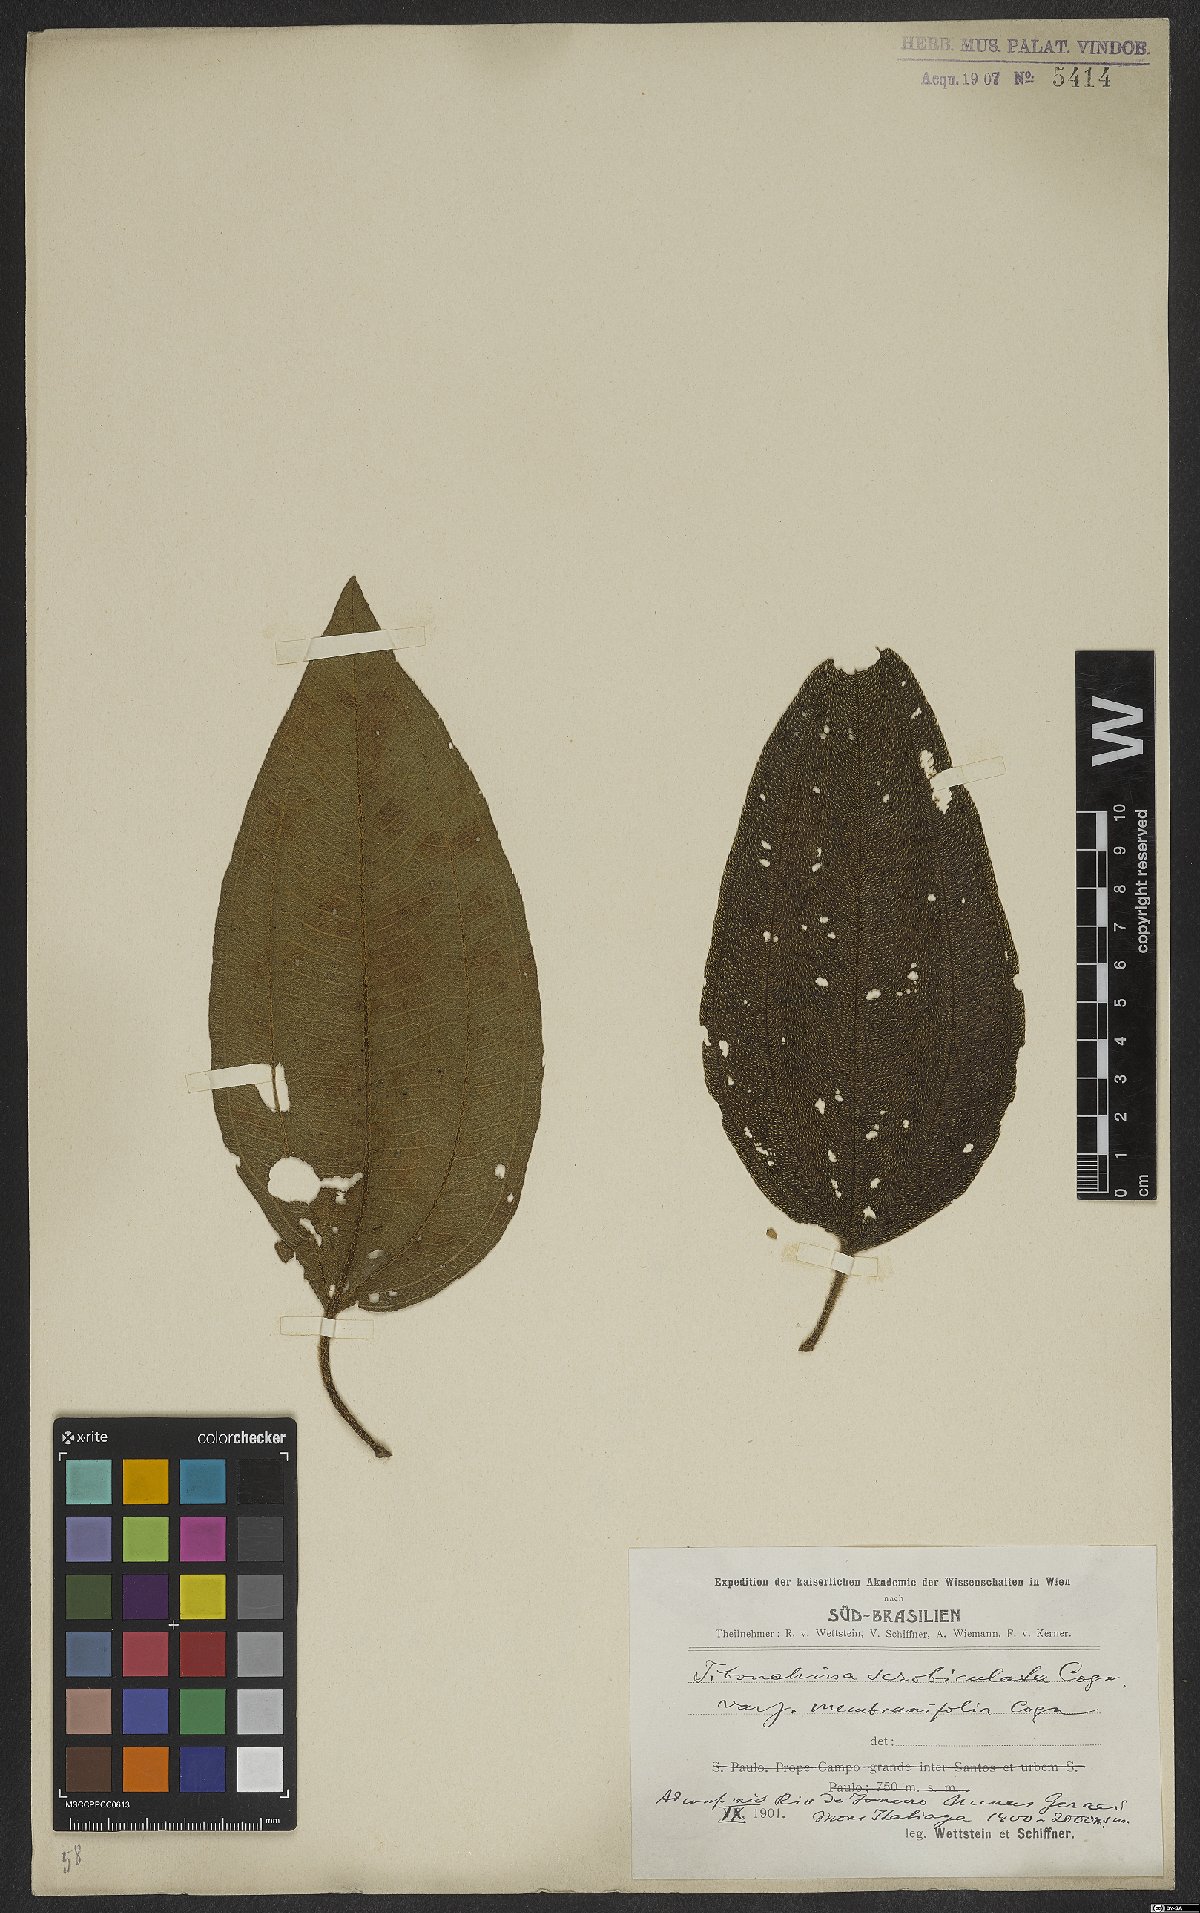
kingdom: Plantae
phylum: Tracheophyta
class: Magnoliopsida
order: Myrtales
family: Melastomataceae
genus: Pleroma
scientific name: Pleroma estrellense
